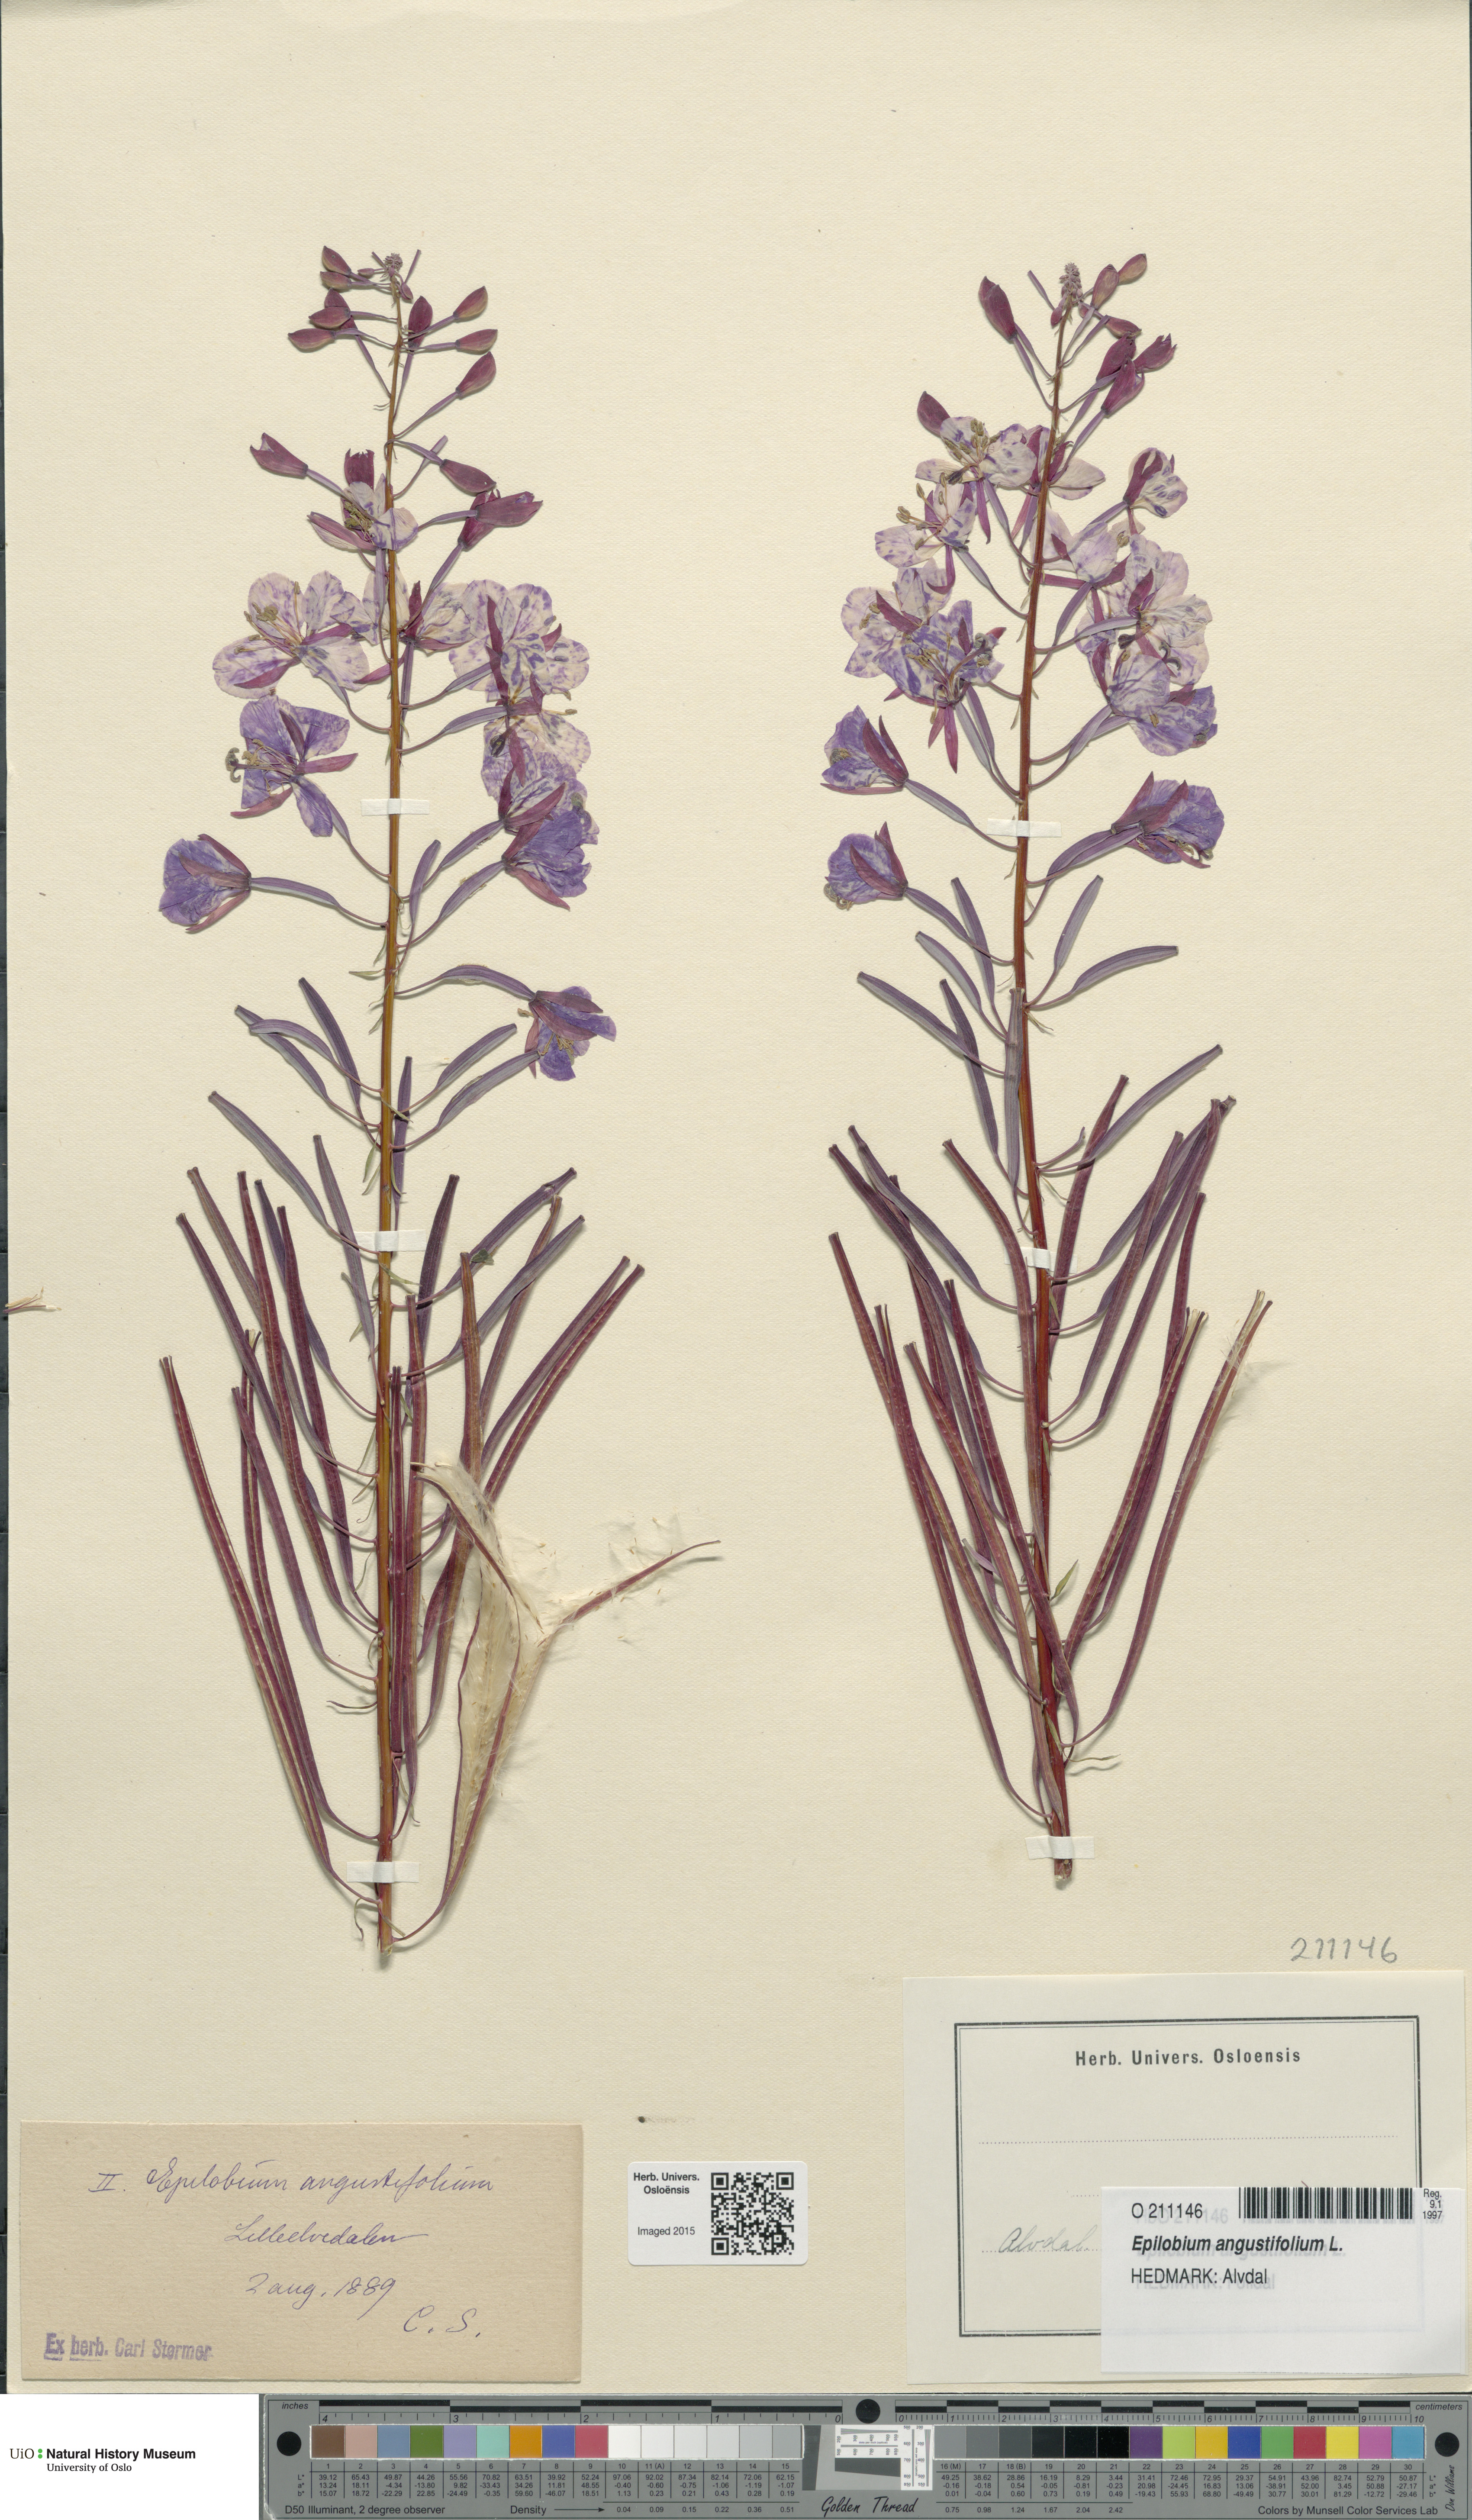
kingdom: Plantae
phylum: Tracheophyta
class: Magnoliopsida
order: Myrtales
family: Onagraceae
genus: Chamaenerion
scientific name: Chamaenerion angustifolium
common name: Fireweed
